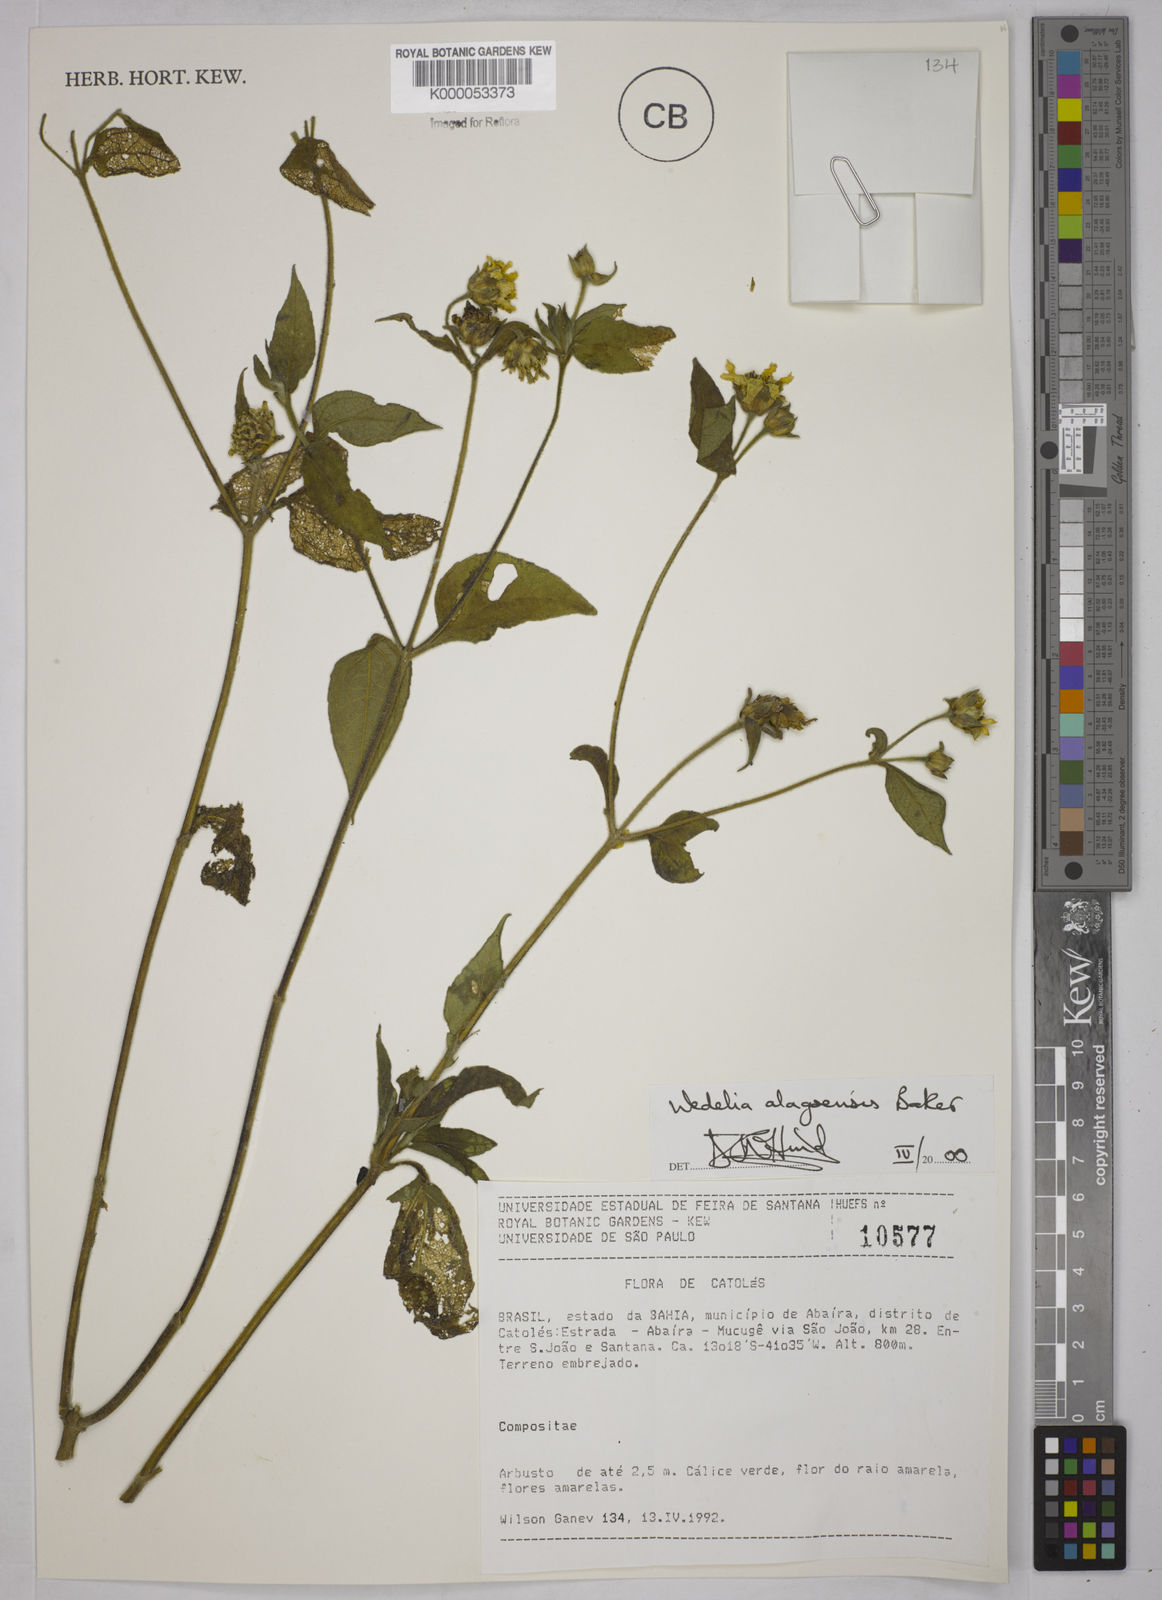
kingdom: Plantae
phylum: Tracheophyta
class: Magnoliopsida
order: Asterales
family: Asteraceae
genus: Wedelia
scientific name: Wedelia alagoensis
